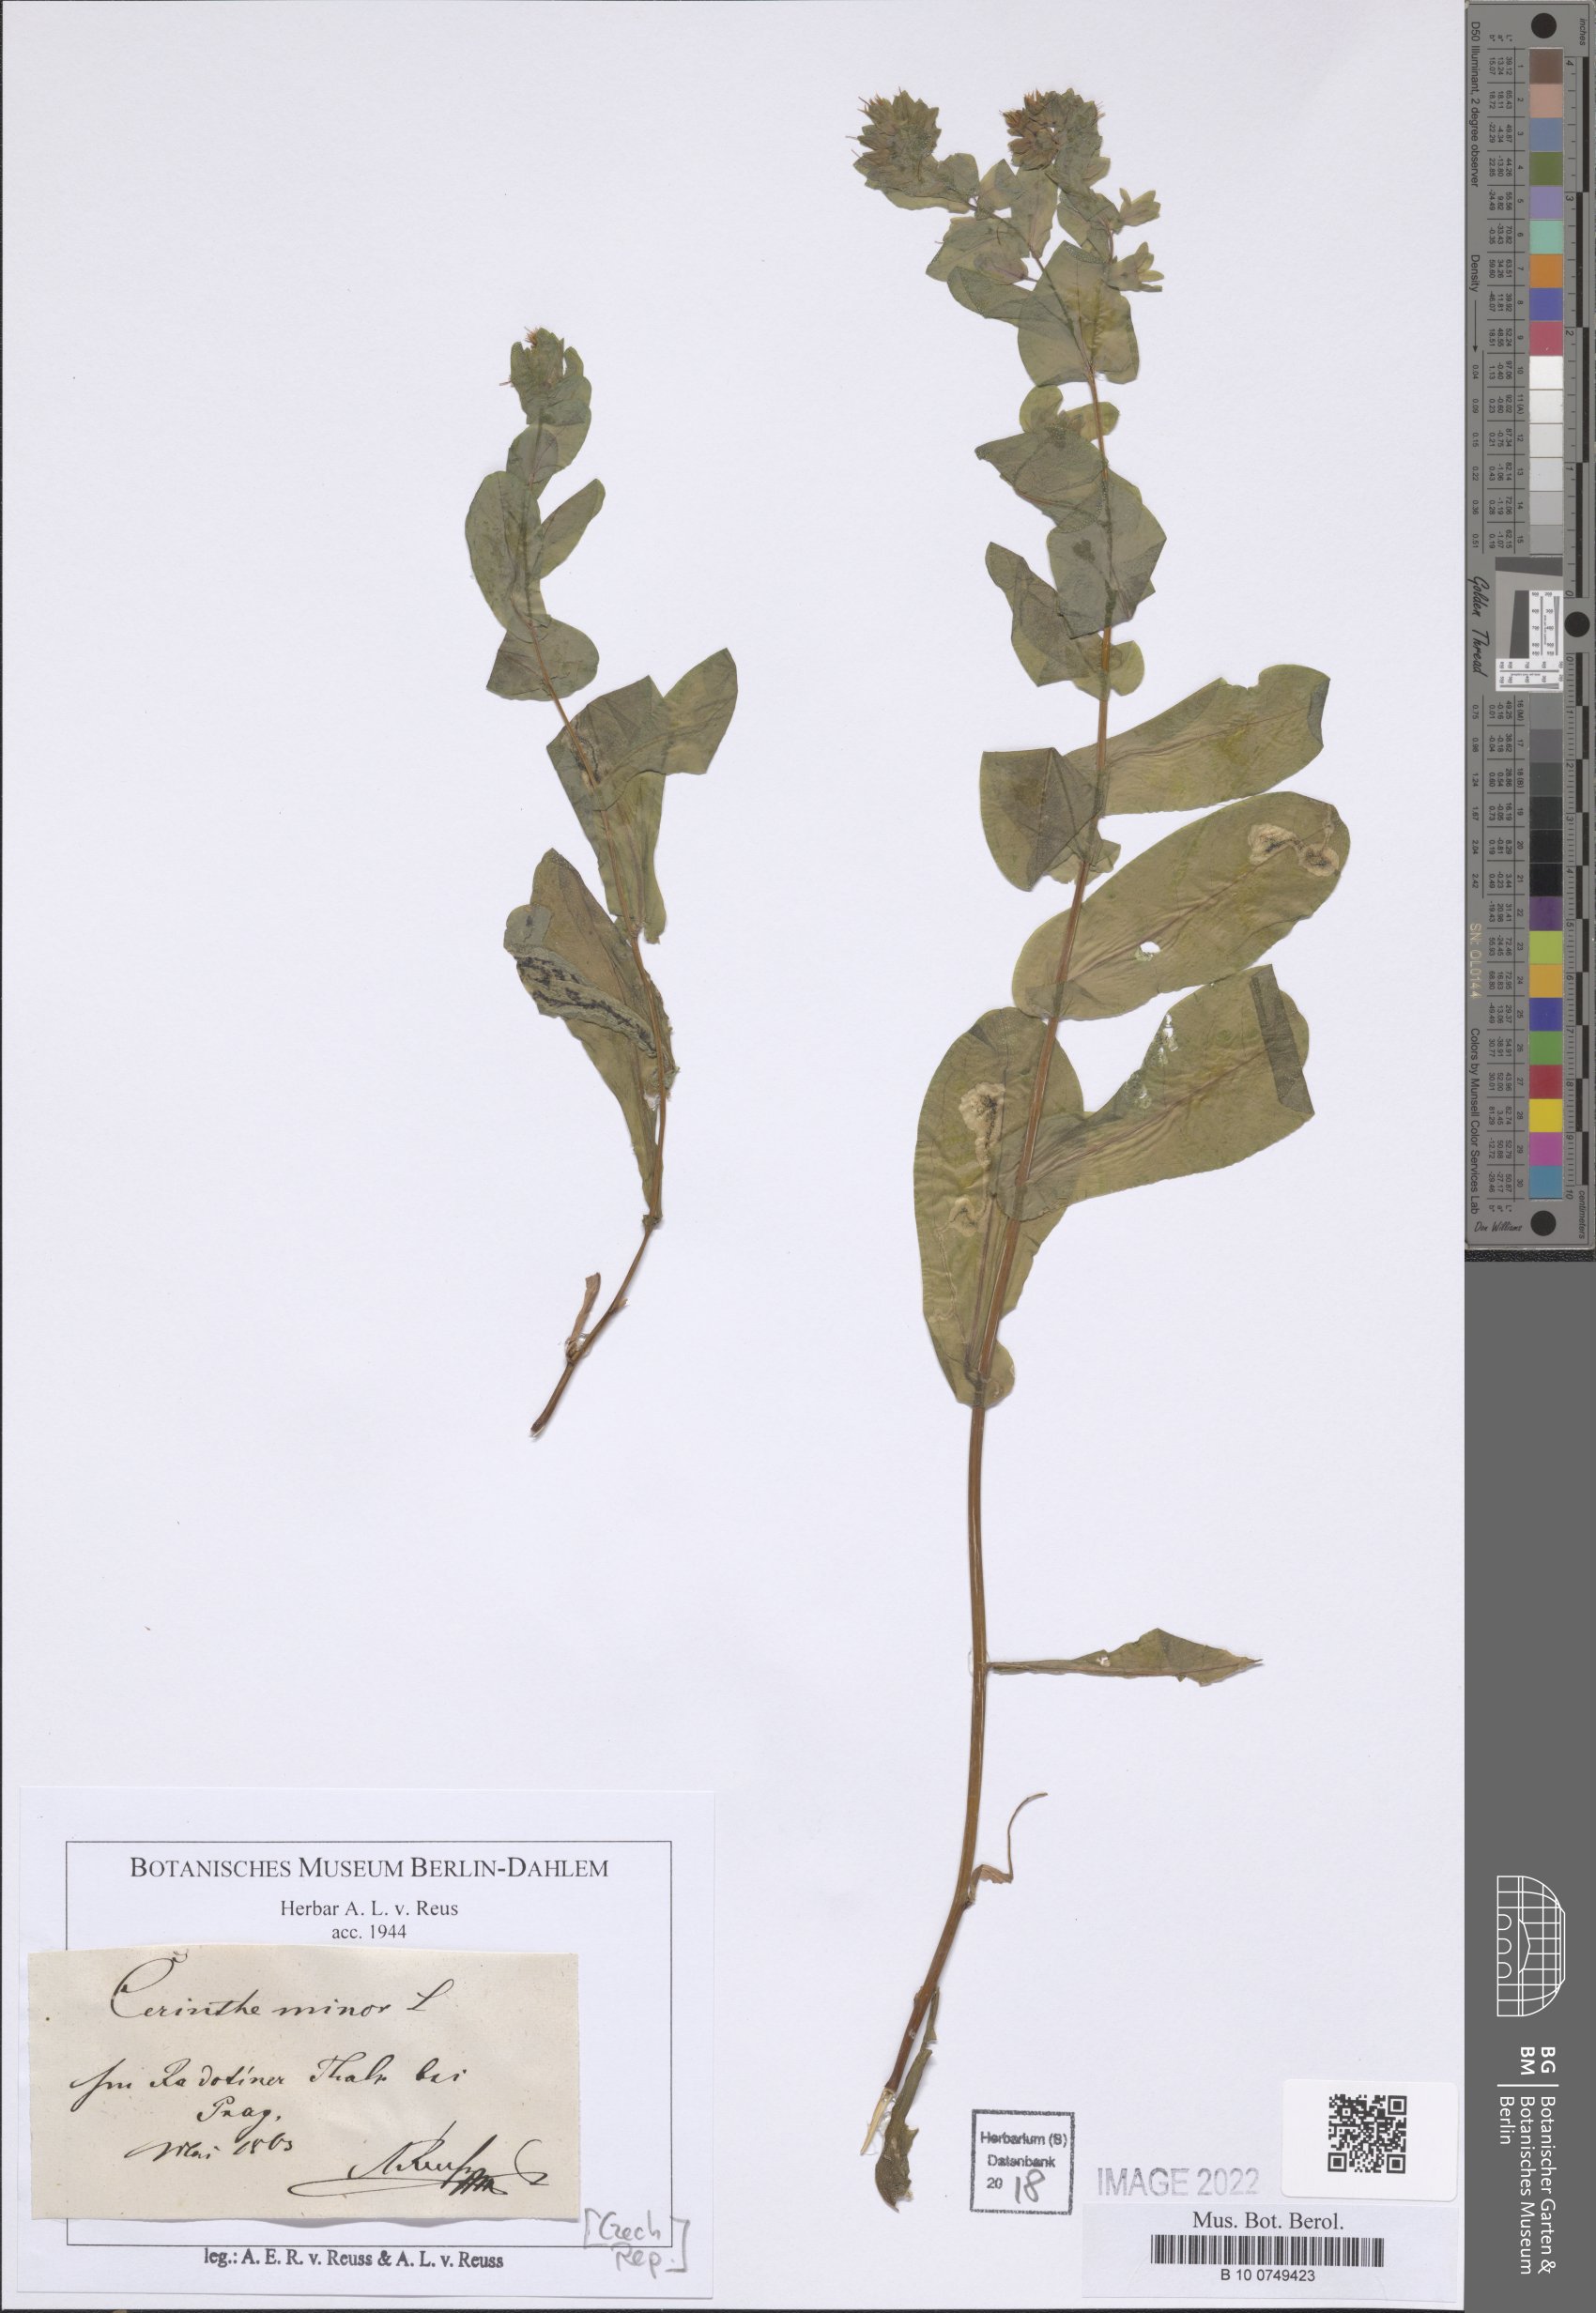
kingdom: Plantae
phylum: Tracheophyta
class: Magnoliopsida
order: Boraginales
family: Boraginaceae
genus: Cerinthe
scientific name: Cerinthe minor
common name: Lesser honeywort
